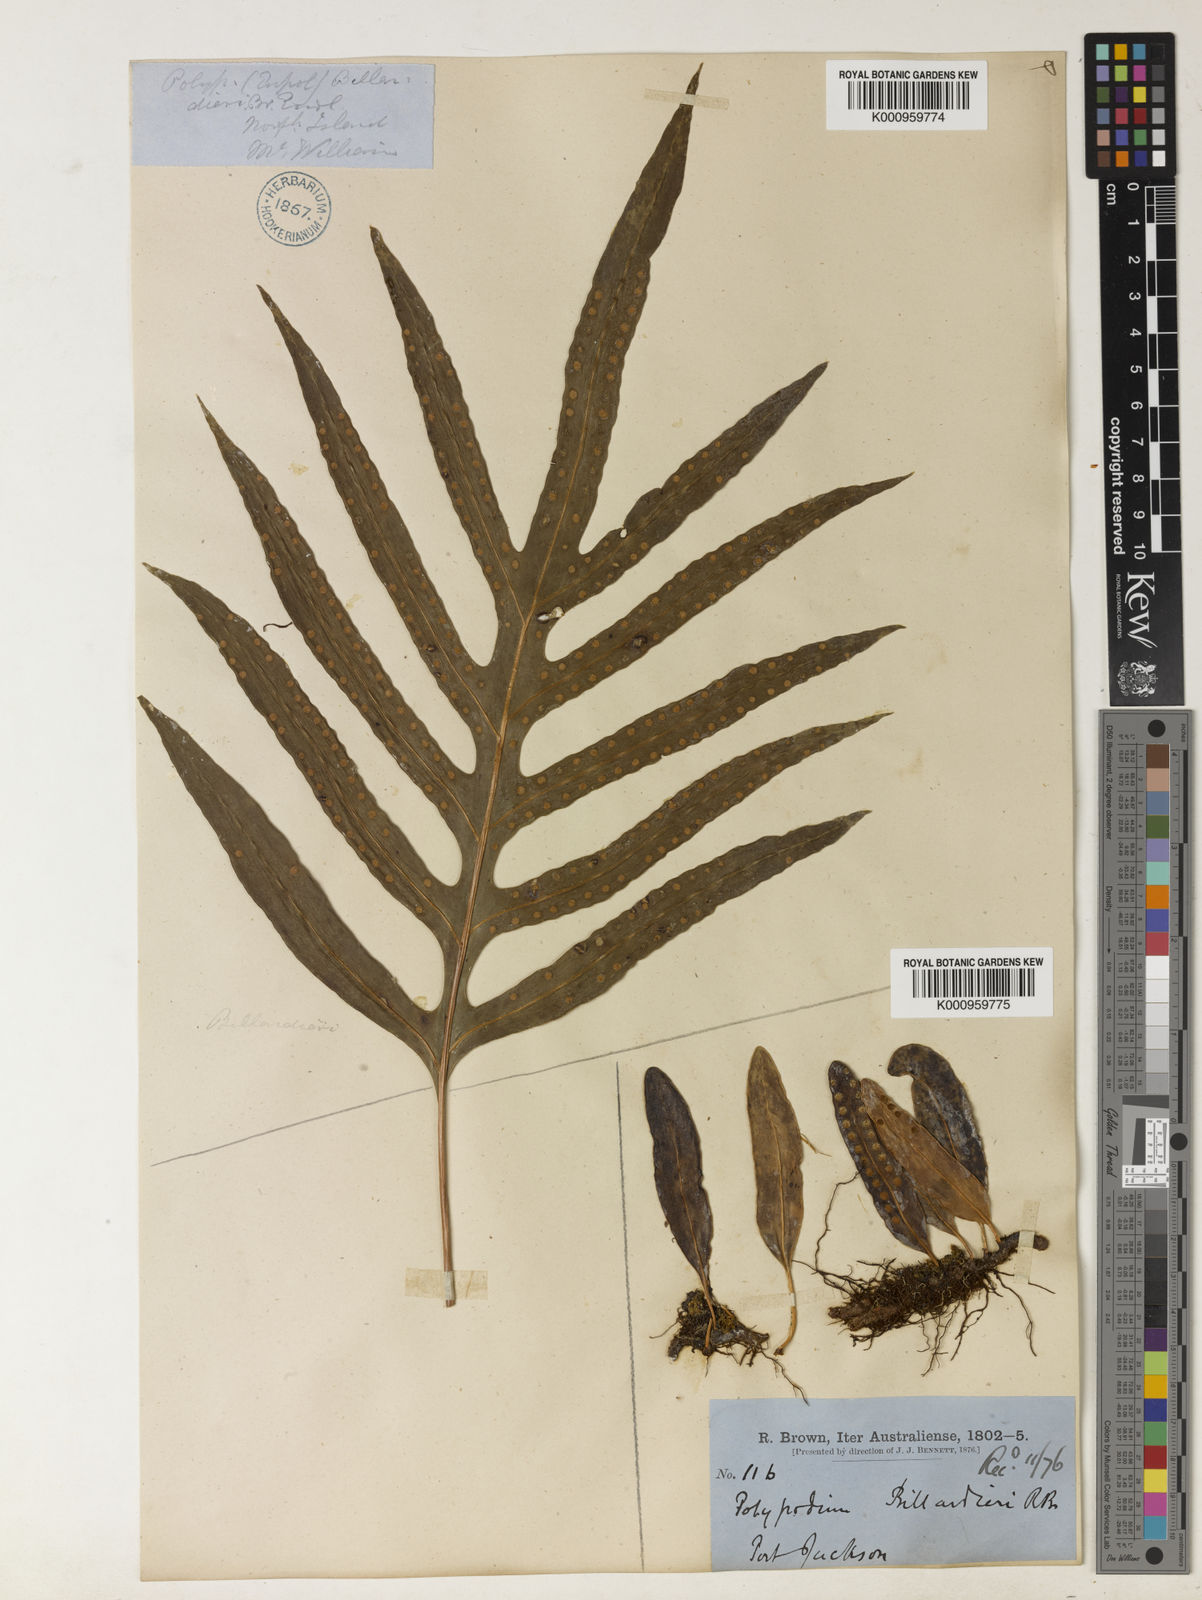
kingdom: Plantae
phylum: Tracheophyta
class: Polypodiopsida
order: Polypodiales
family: Polypodiaceae
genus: Drynaria
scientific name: Drynaria rigidula
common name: Basket fern
